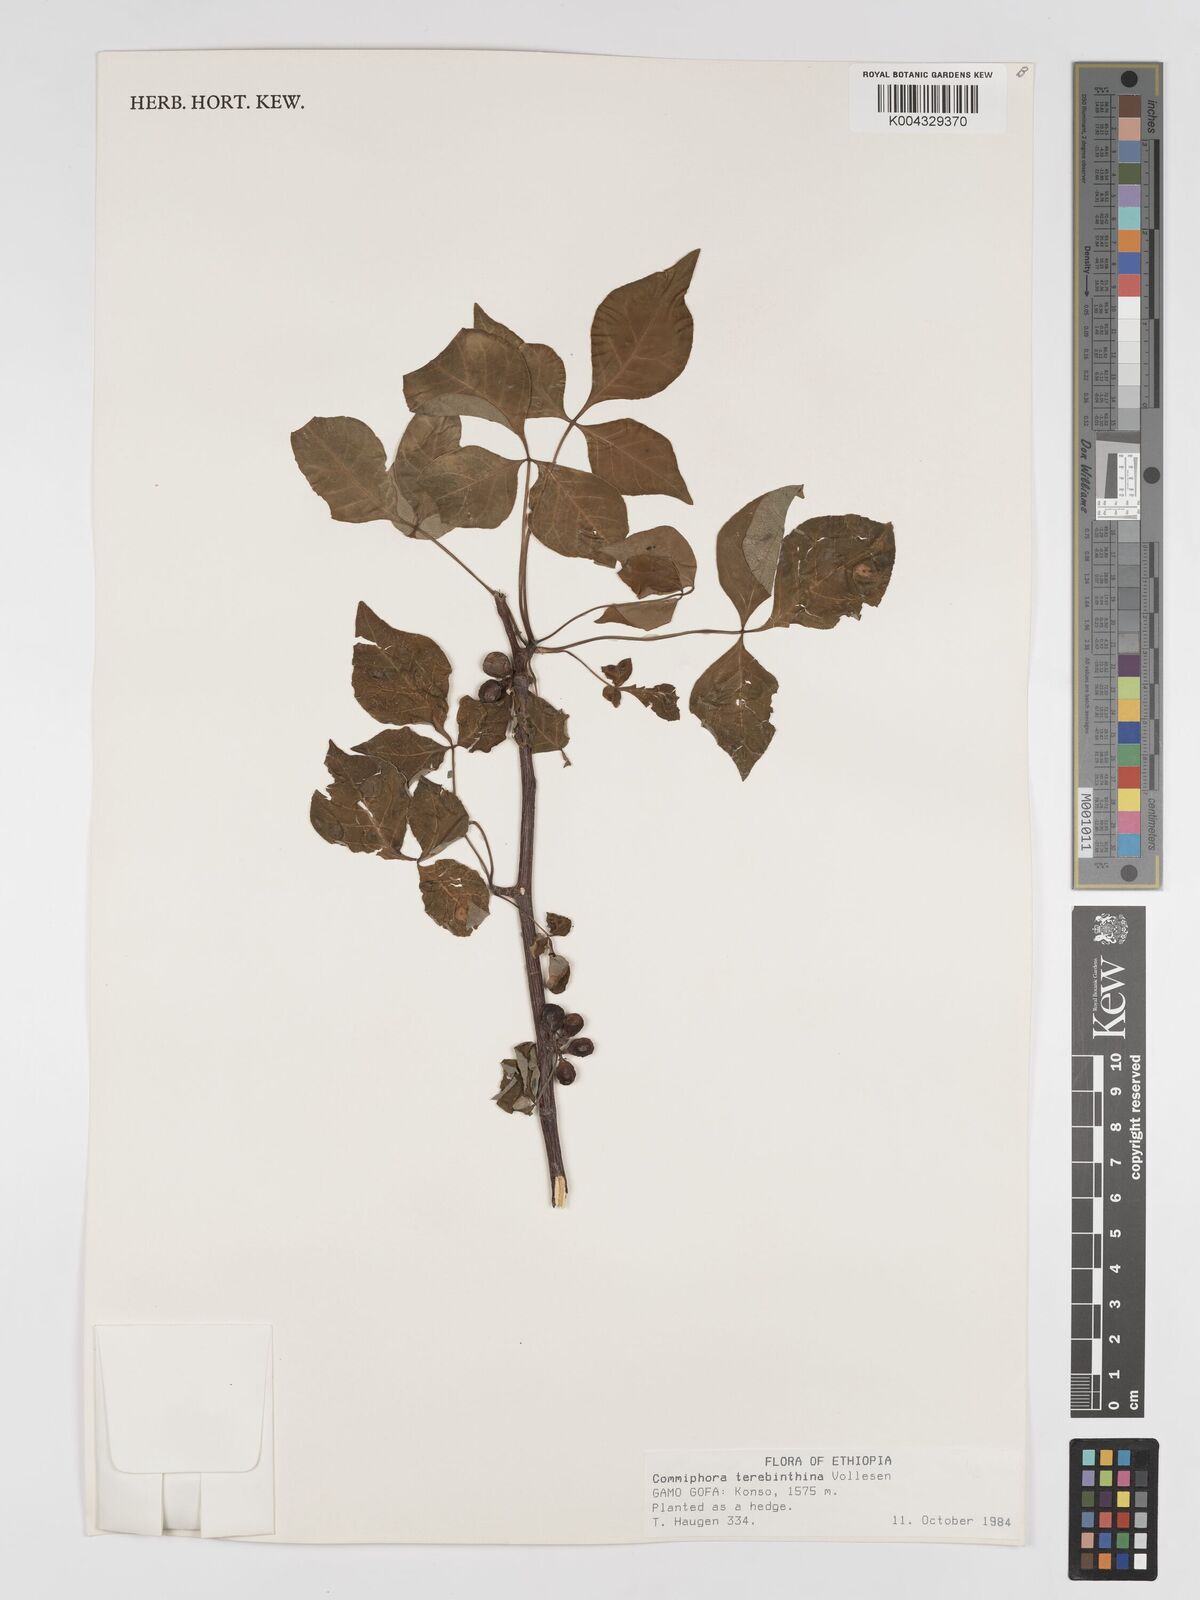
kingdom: Plantae
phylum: Tracheophyta
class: Magnoliopsida
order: Sapindales
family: Burseraceae
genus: Commiphora
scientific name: Commiphora samharensis
